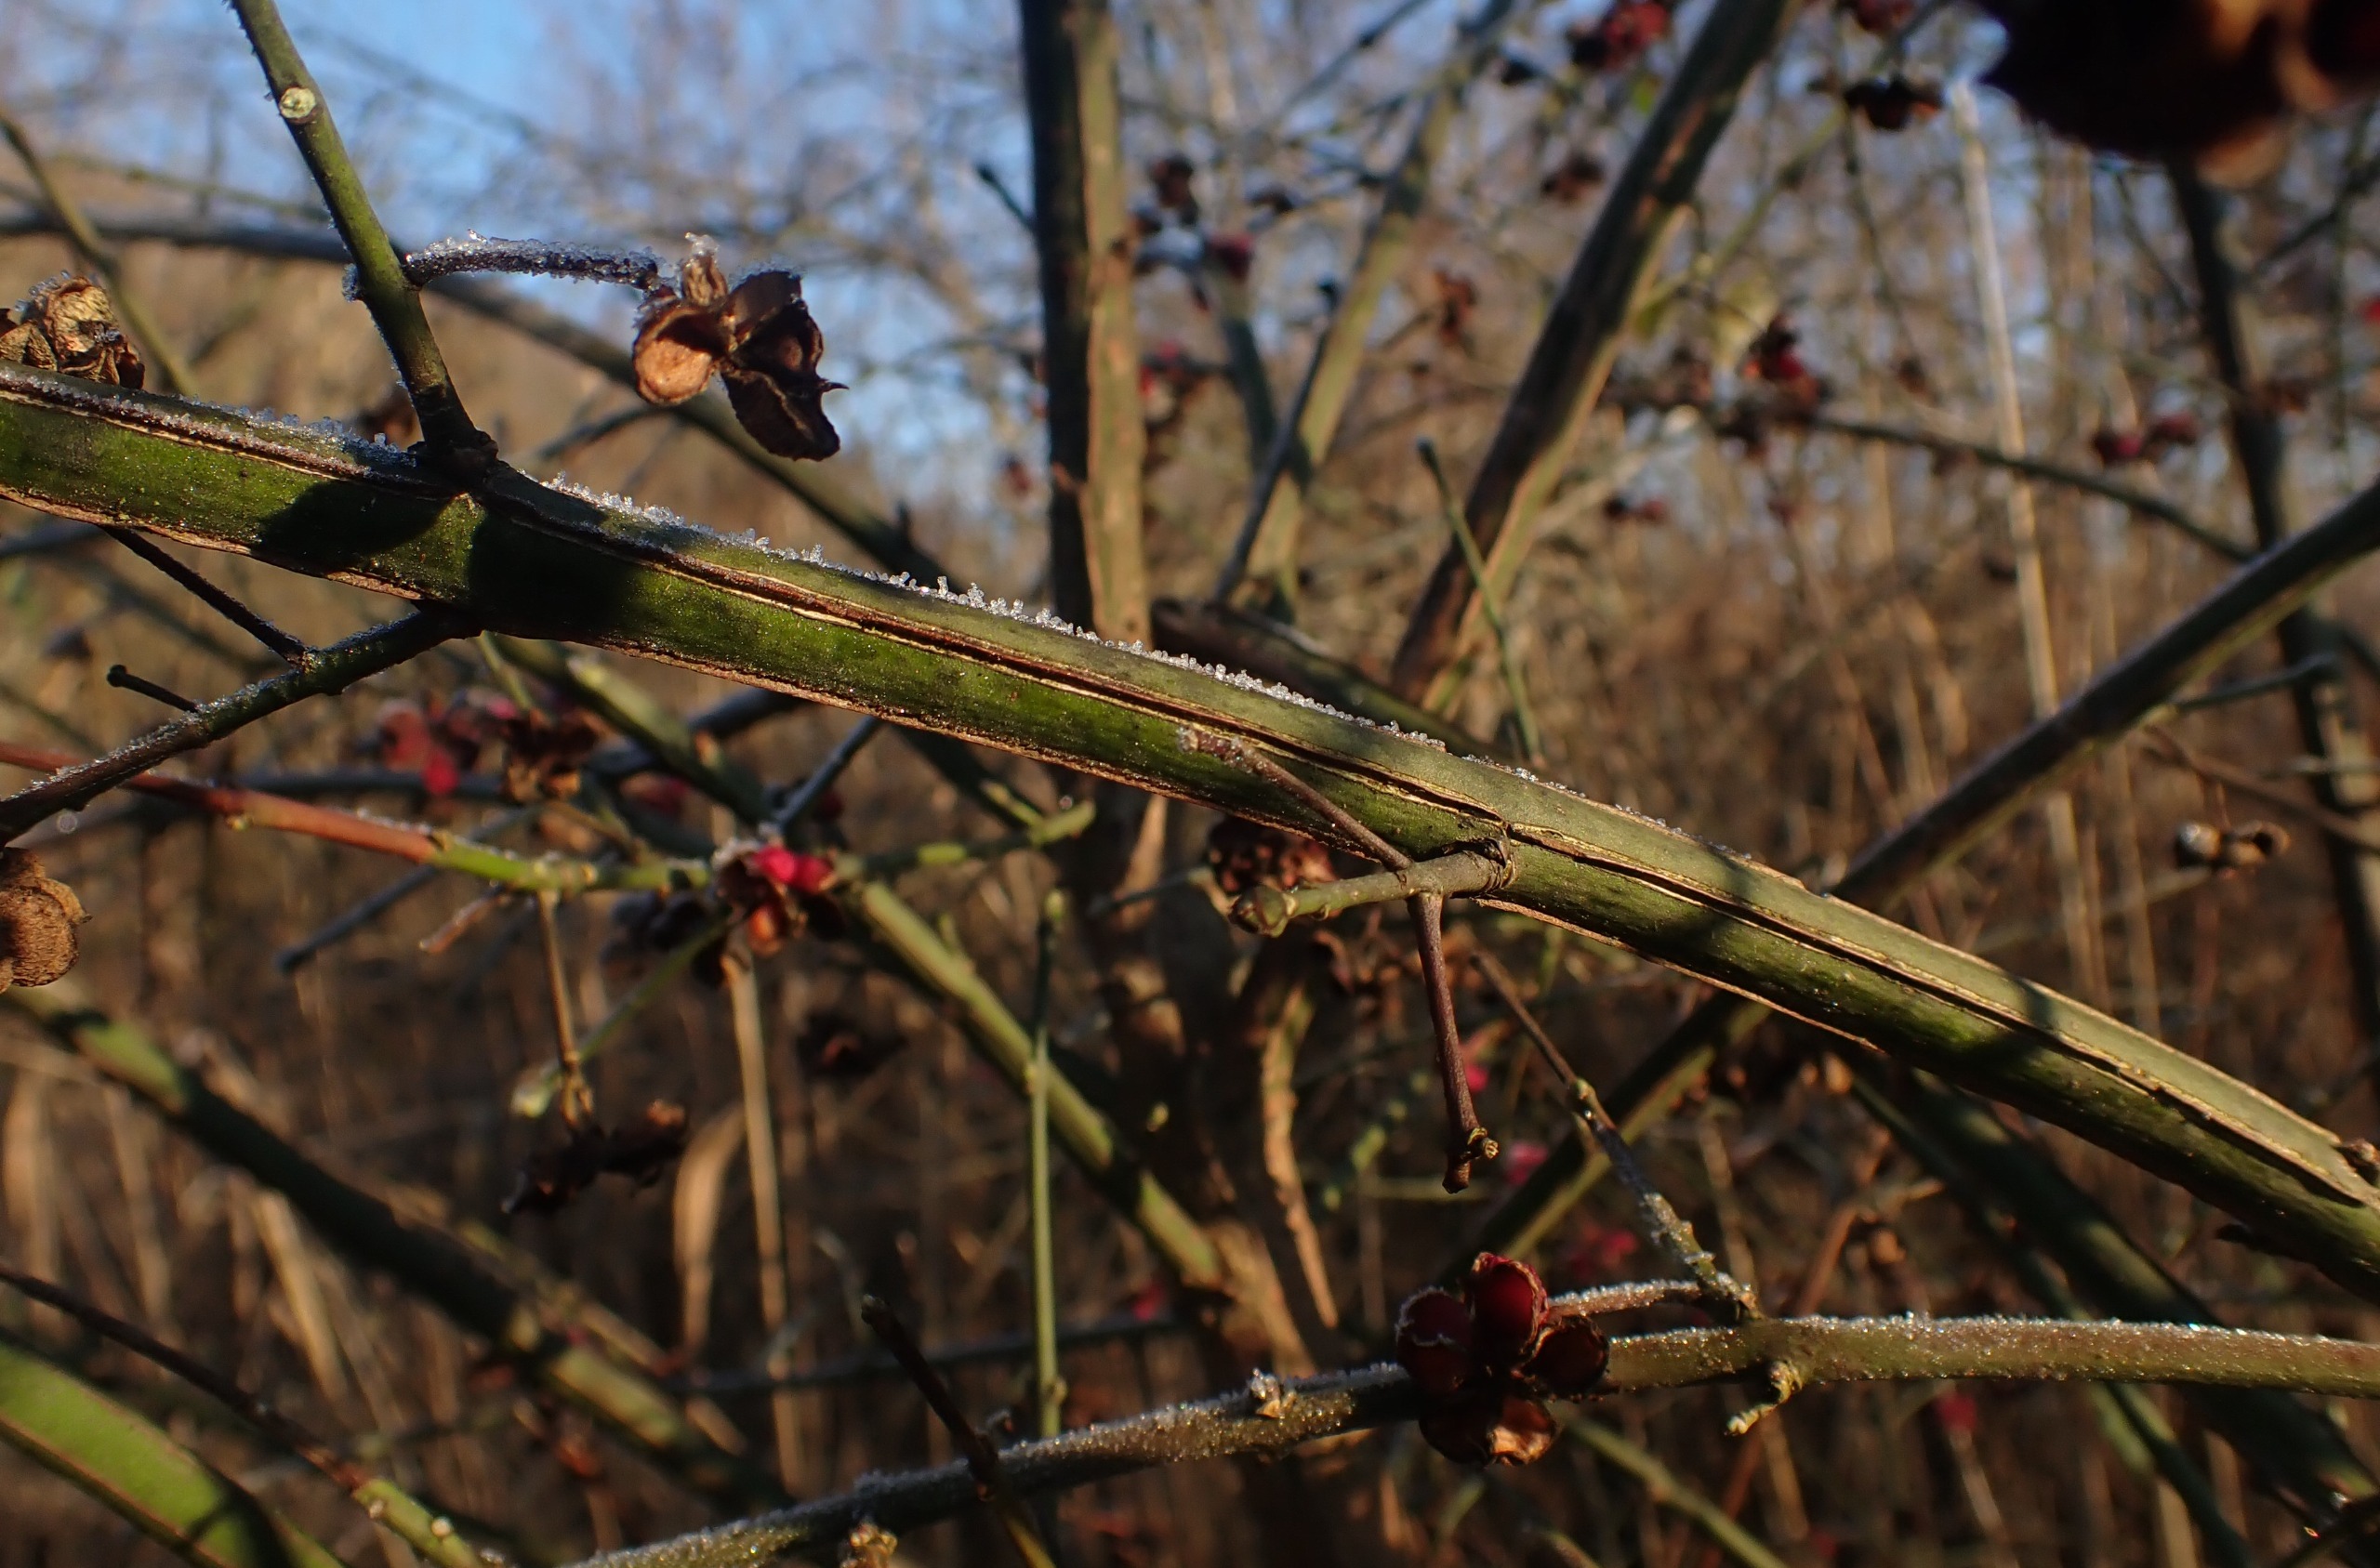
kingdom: Plantae
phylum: Tracheophyta
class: Magnoliopsida
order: Celastrales
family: Celastraceae
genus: Euonymus
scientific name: Euonymus europaeus
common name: Benved
